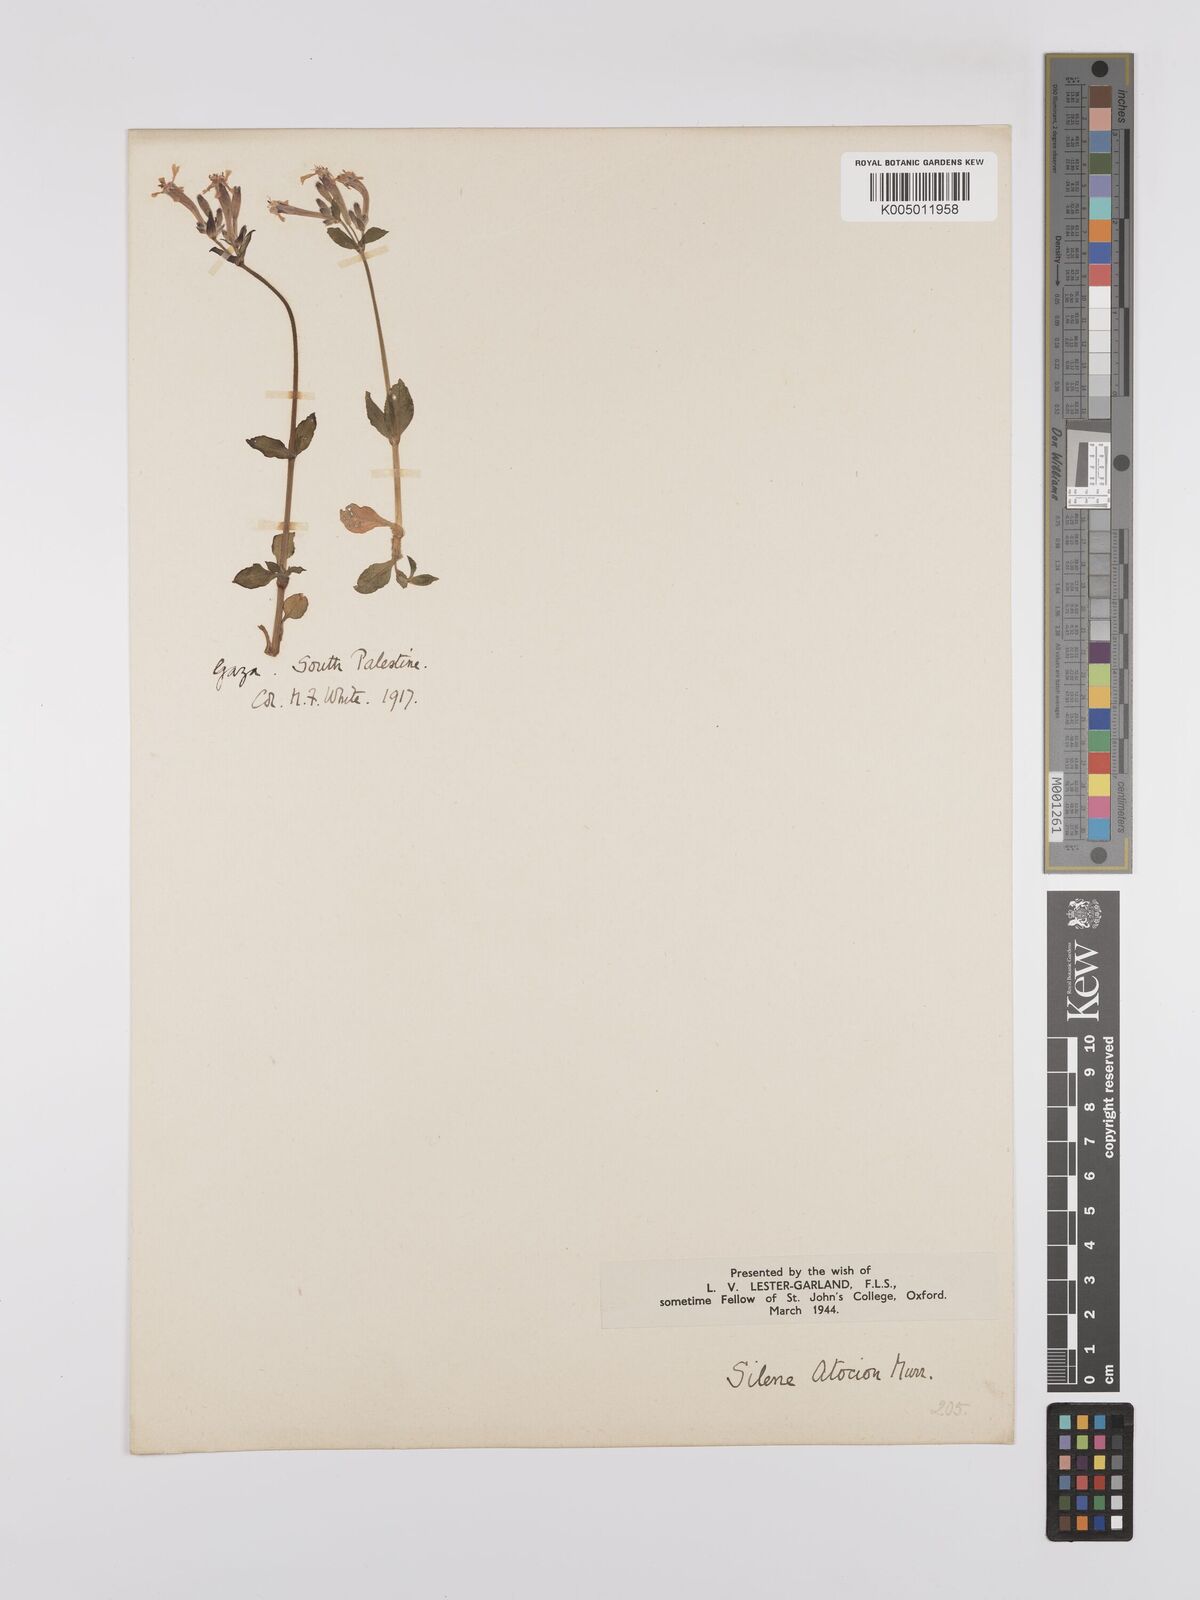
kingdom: Plantae
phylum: Tracheophyta
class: Magnoliopsida
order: Caryophyllales
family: Caryophyllaceae
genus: Silene
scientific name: Silene aegyptiaca
